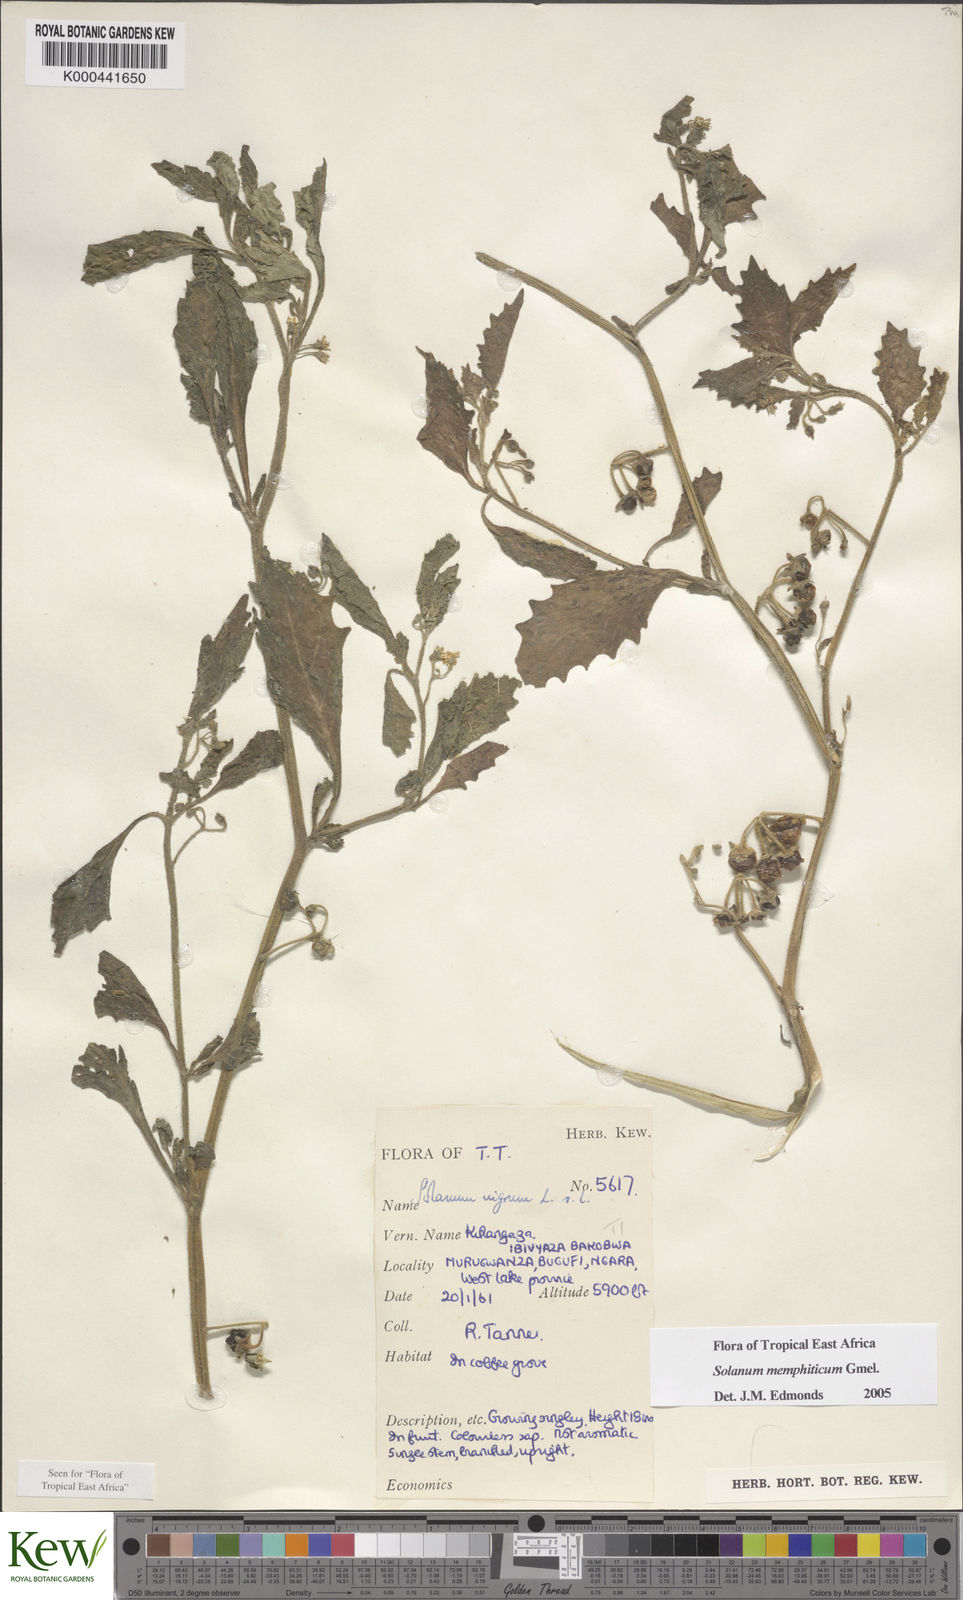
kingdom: Plantae
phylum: Tracheophyta
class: Magnoliopsida
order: Solanales
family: Solanaceae
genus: Solanum
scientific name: Solanum memphiticum
